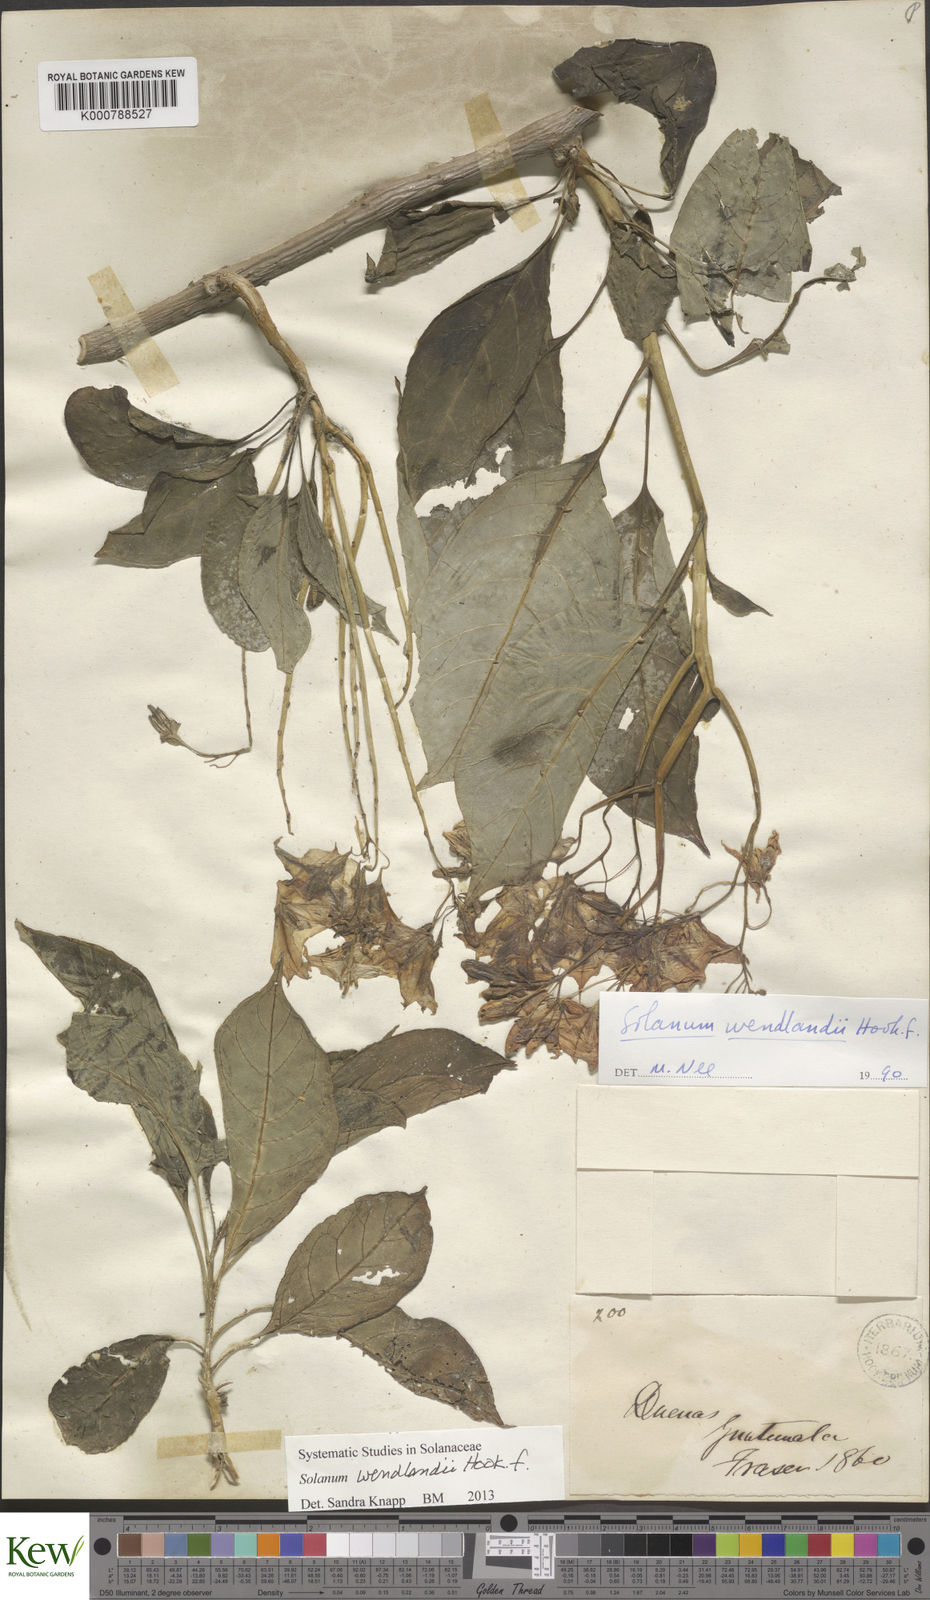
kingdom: Plantae
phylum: Tracheophyta
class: Magnoliopsida
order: Solanales
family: Solanaceae
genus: Solanum
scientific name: Solanum wendlandii
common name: Costa rican nightshade
